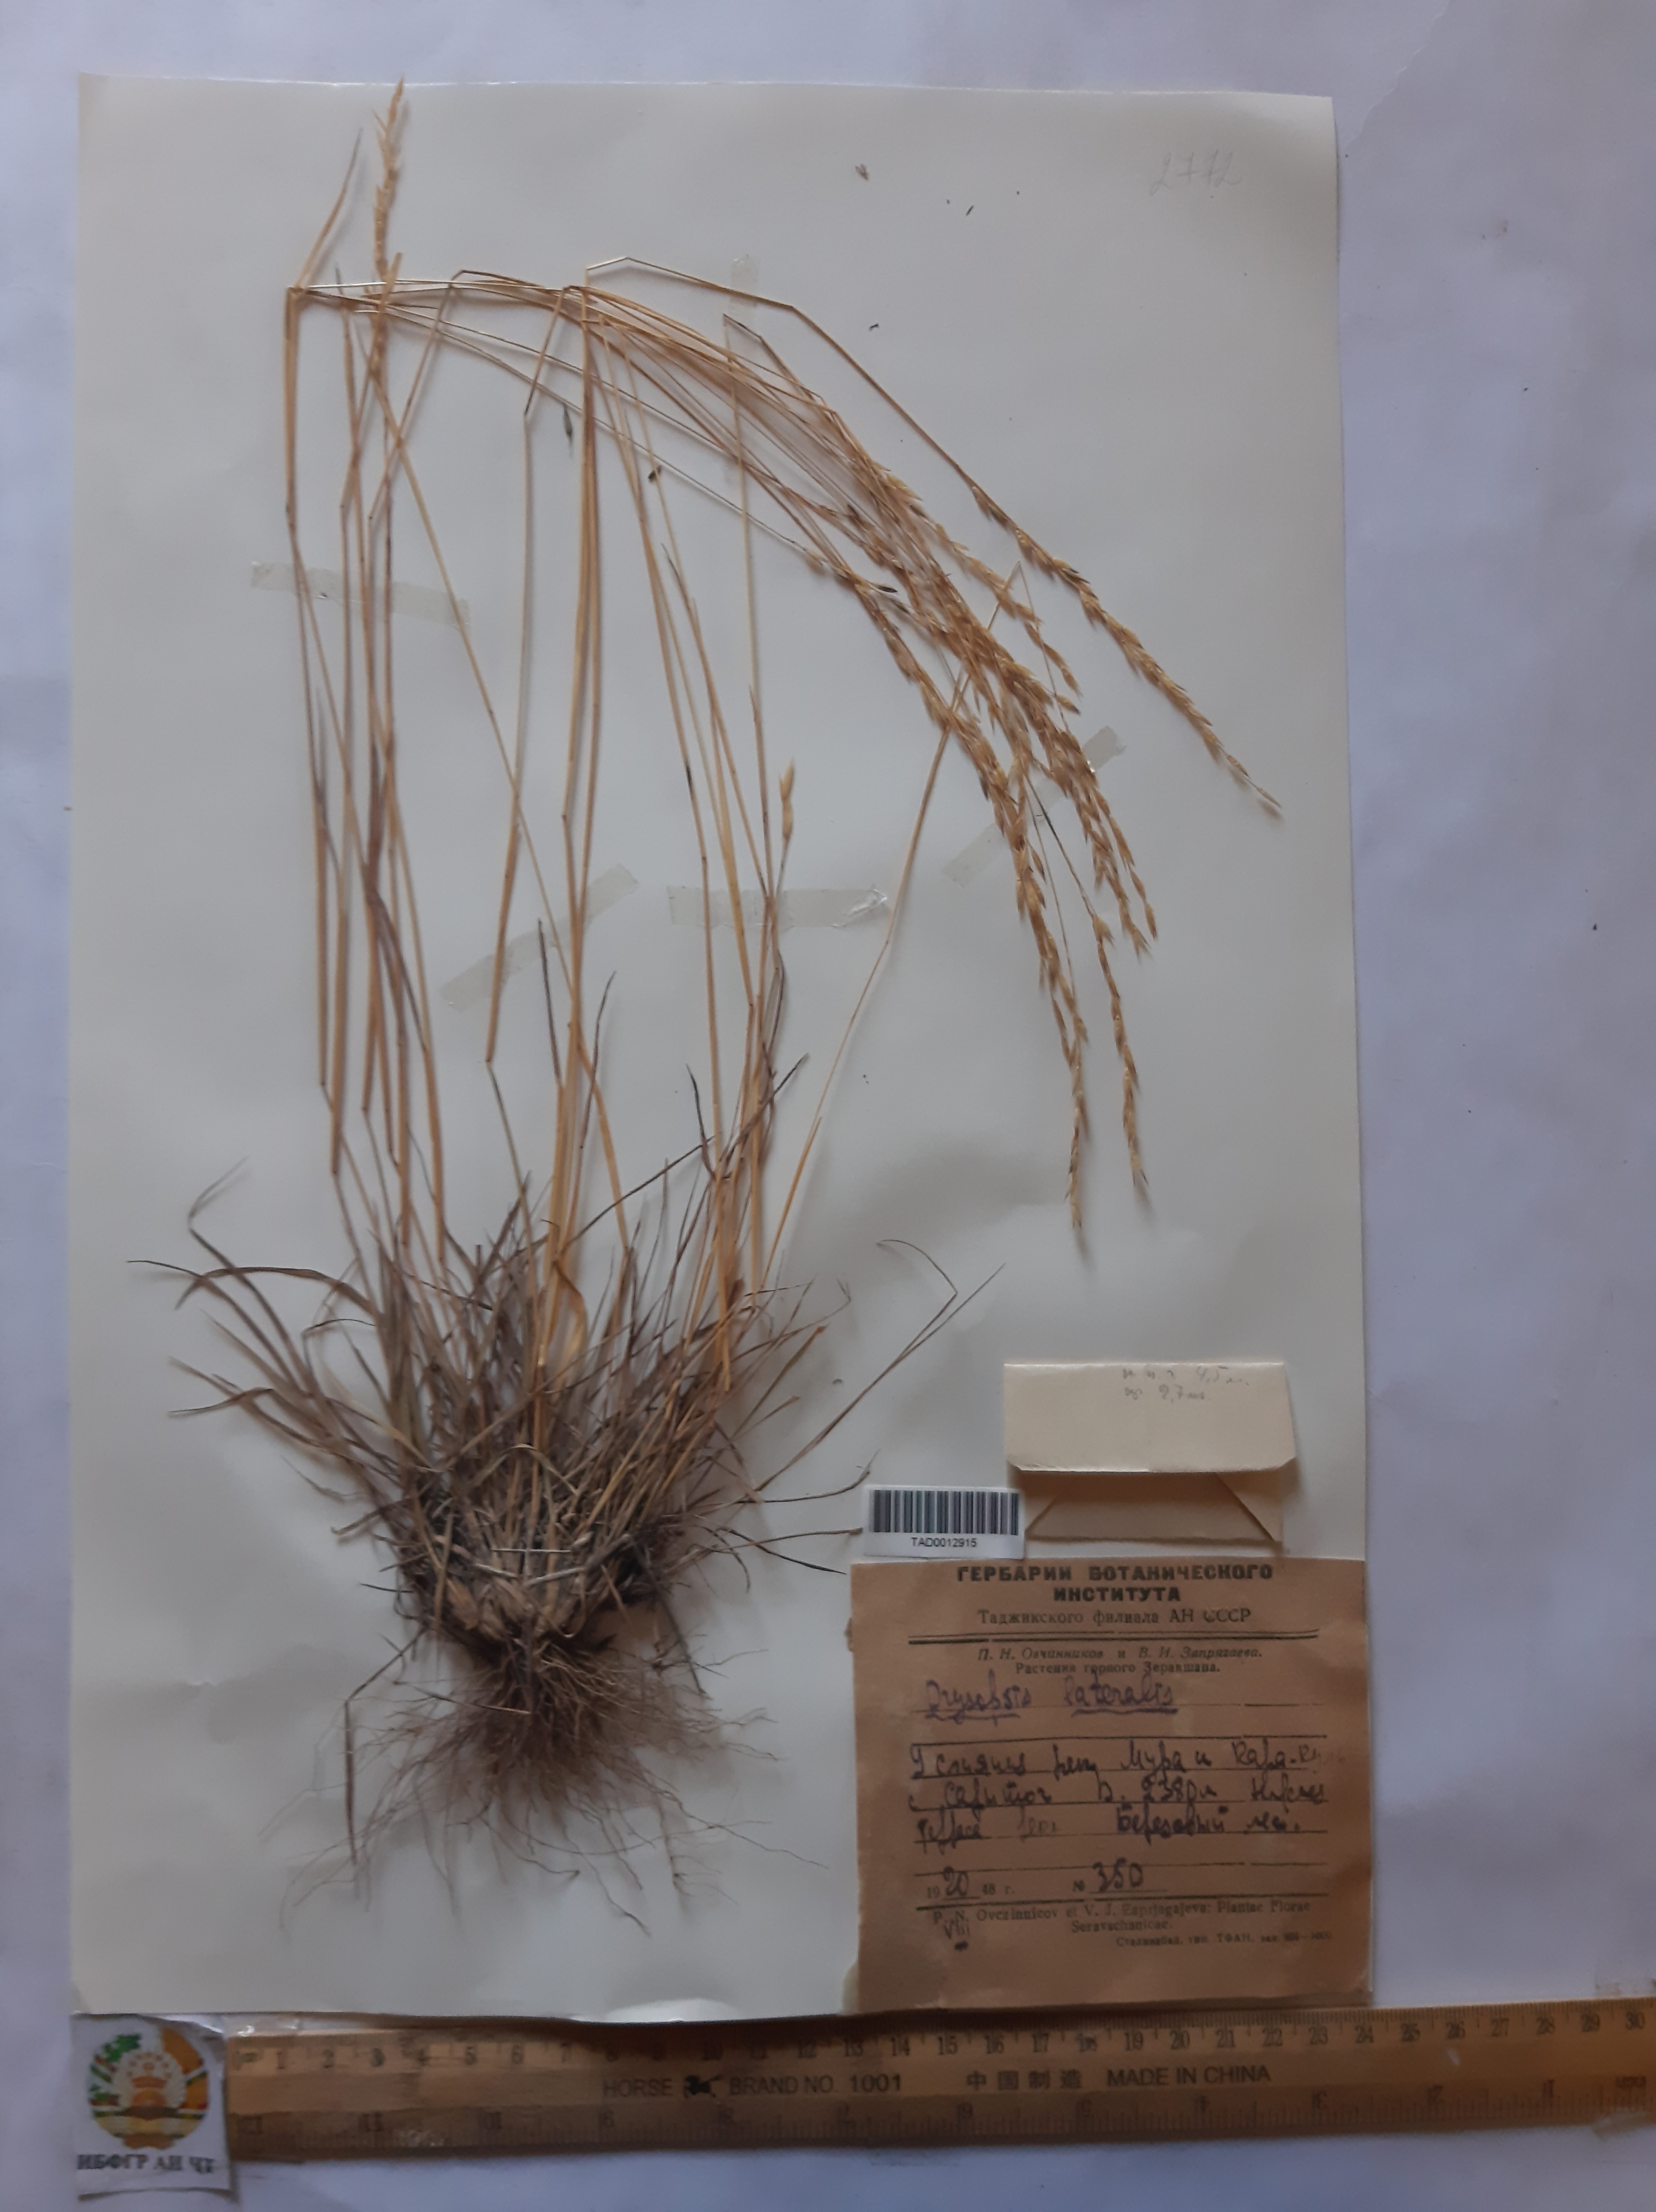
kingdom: Plantae
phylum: Tracheophyta
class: Liliopsida
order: Poales
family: Poaceae
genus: Piptatherum
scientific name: Piptatherum laterale
